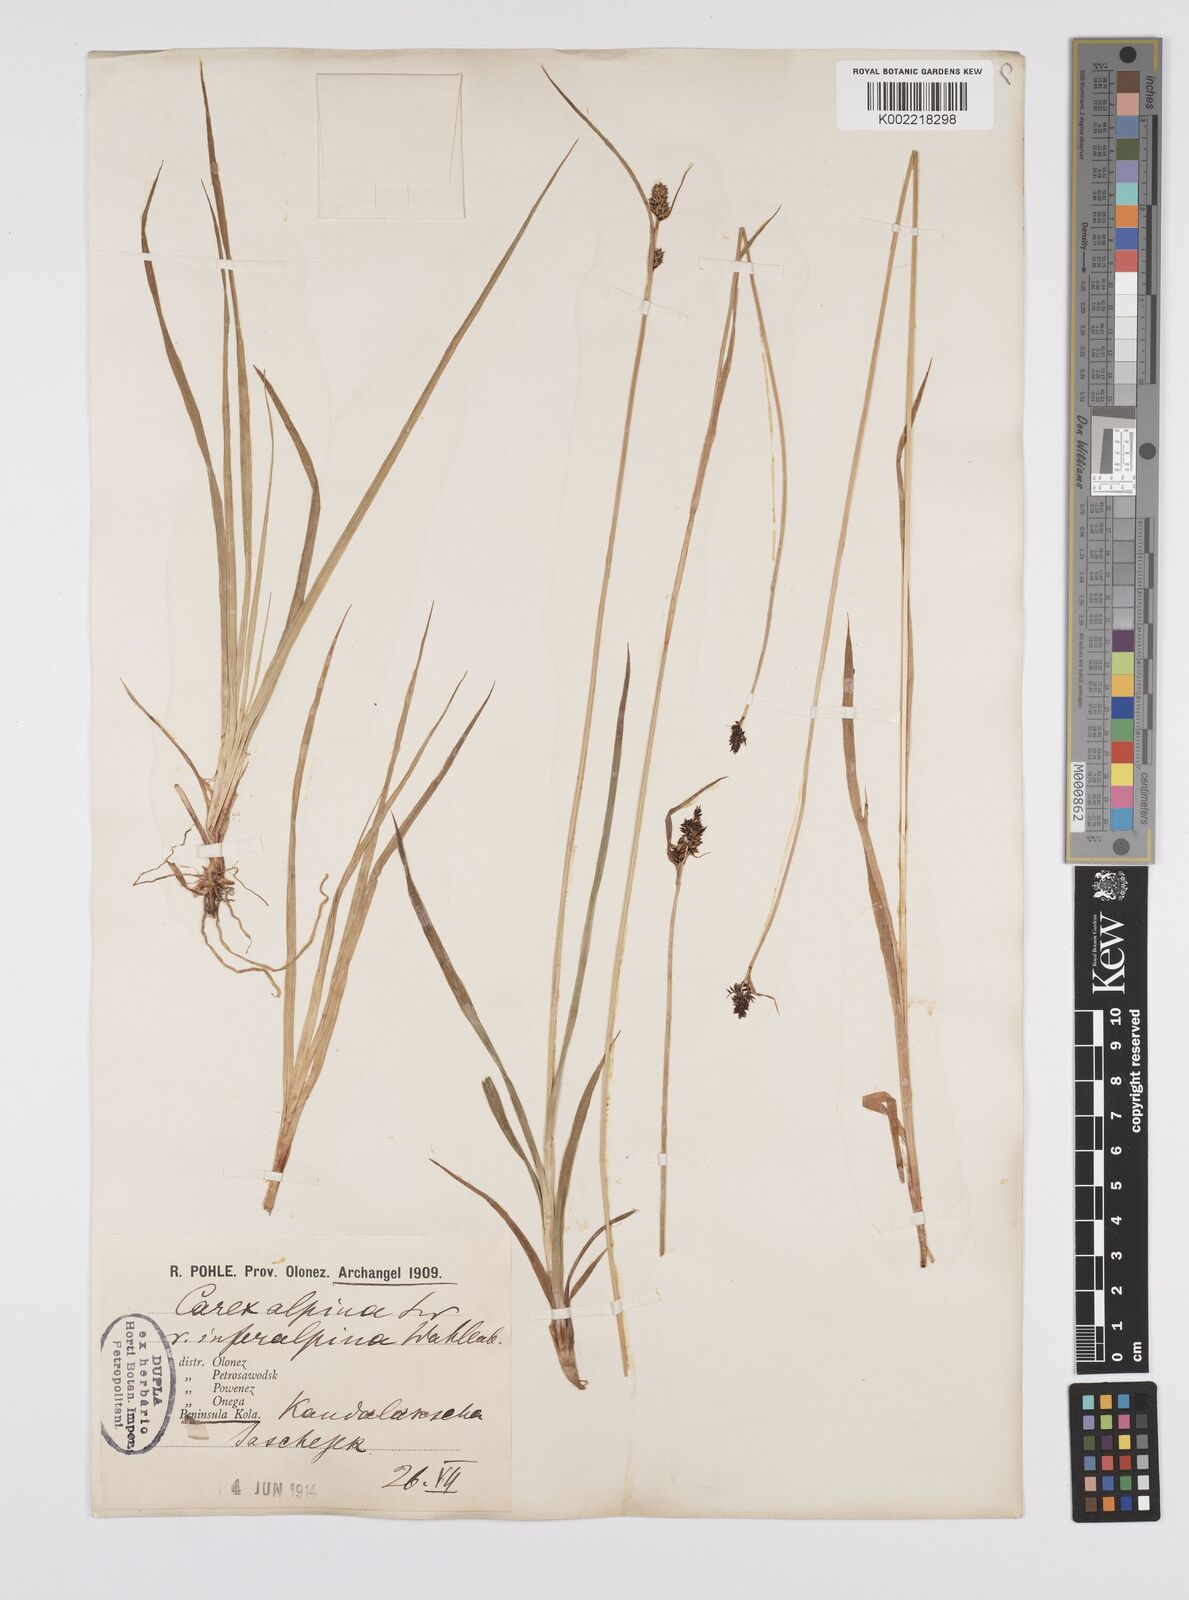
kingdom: Plantae
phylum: Tracheophyta
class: Liliopsida
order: Poales
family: Cyperaceae
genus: Carex
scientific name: Carex nigra
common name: Common sedge
